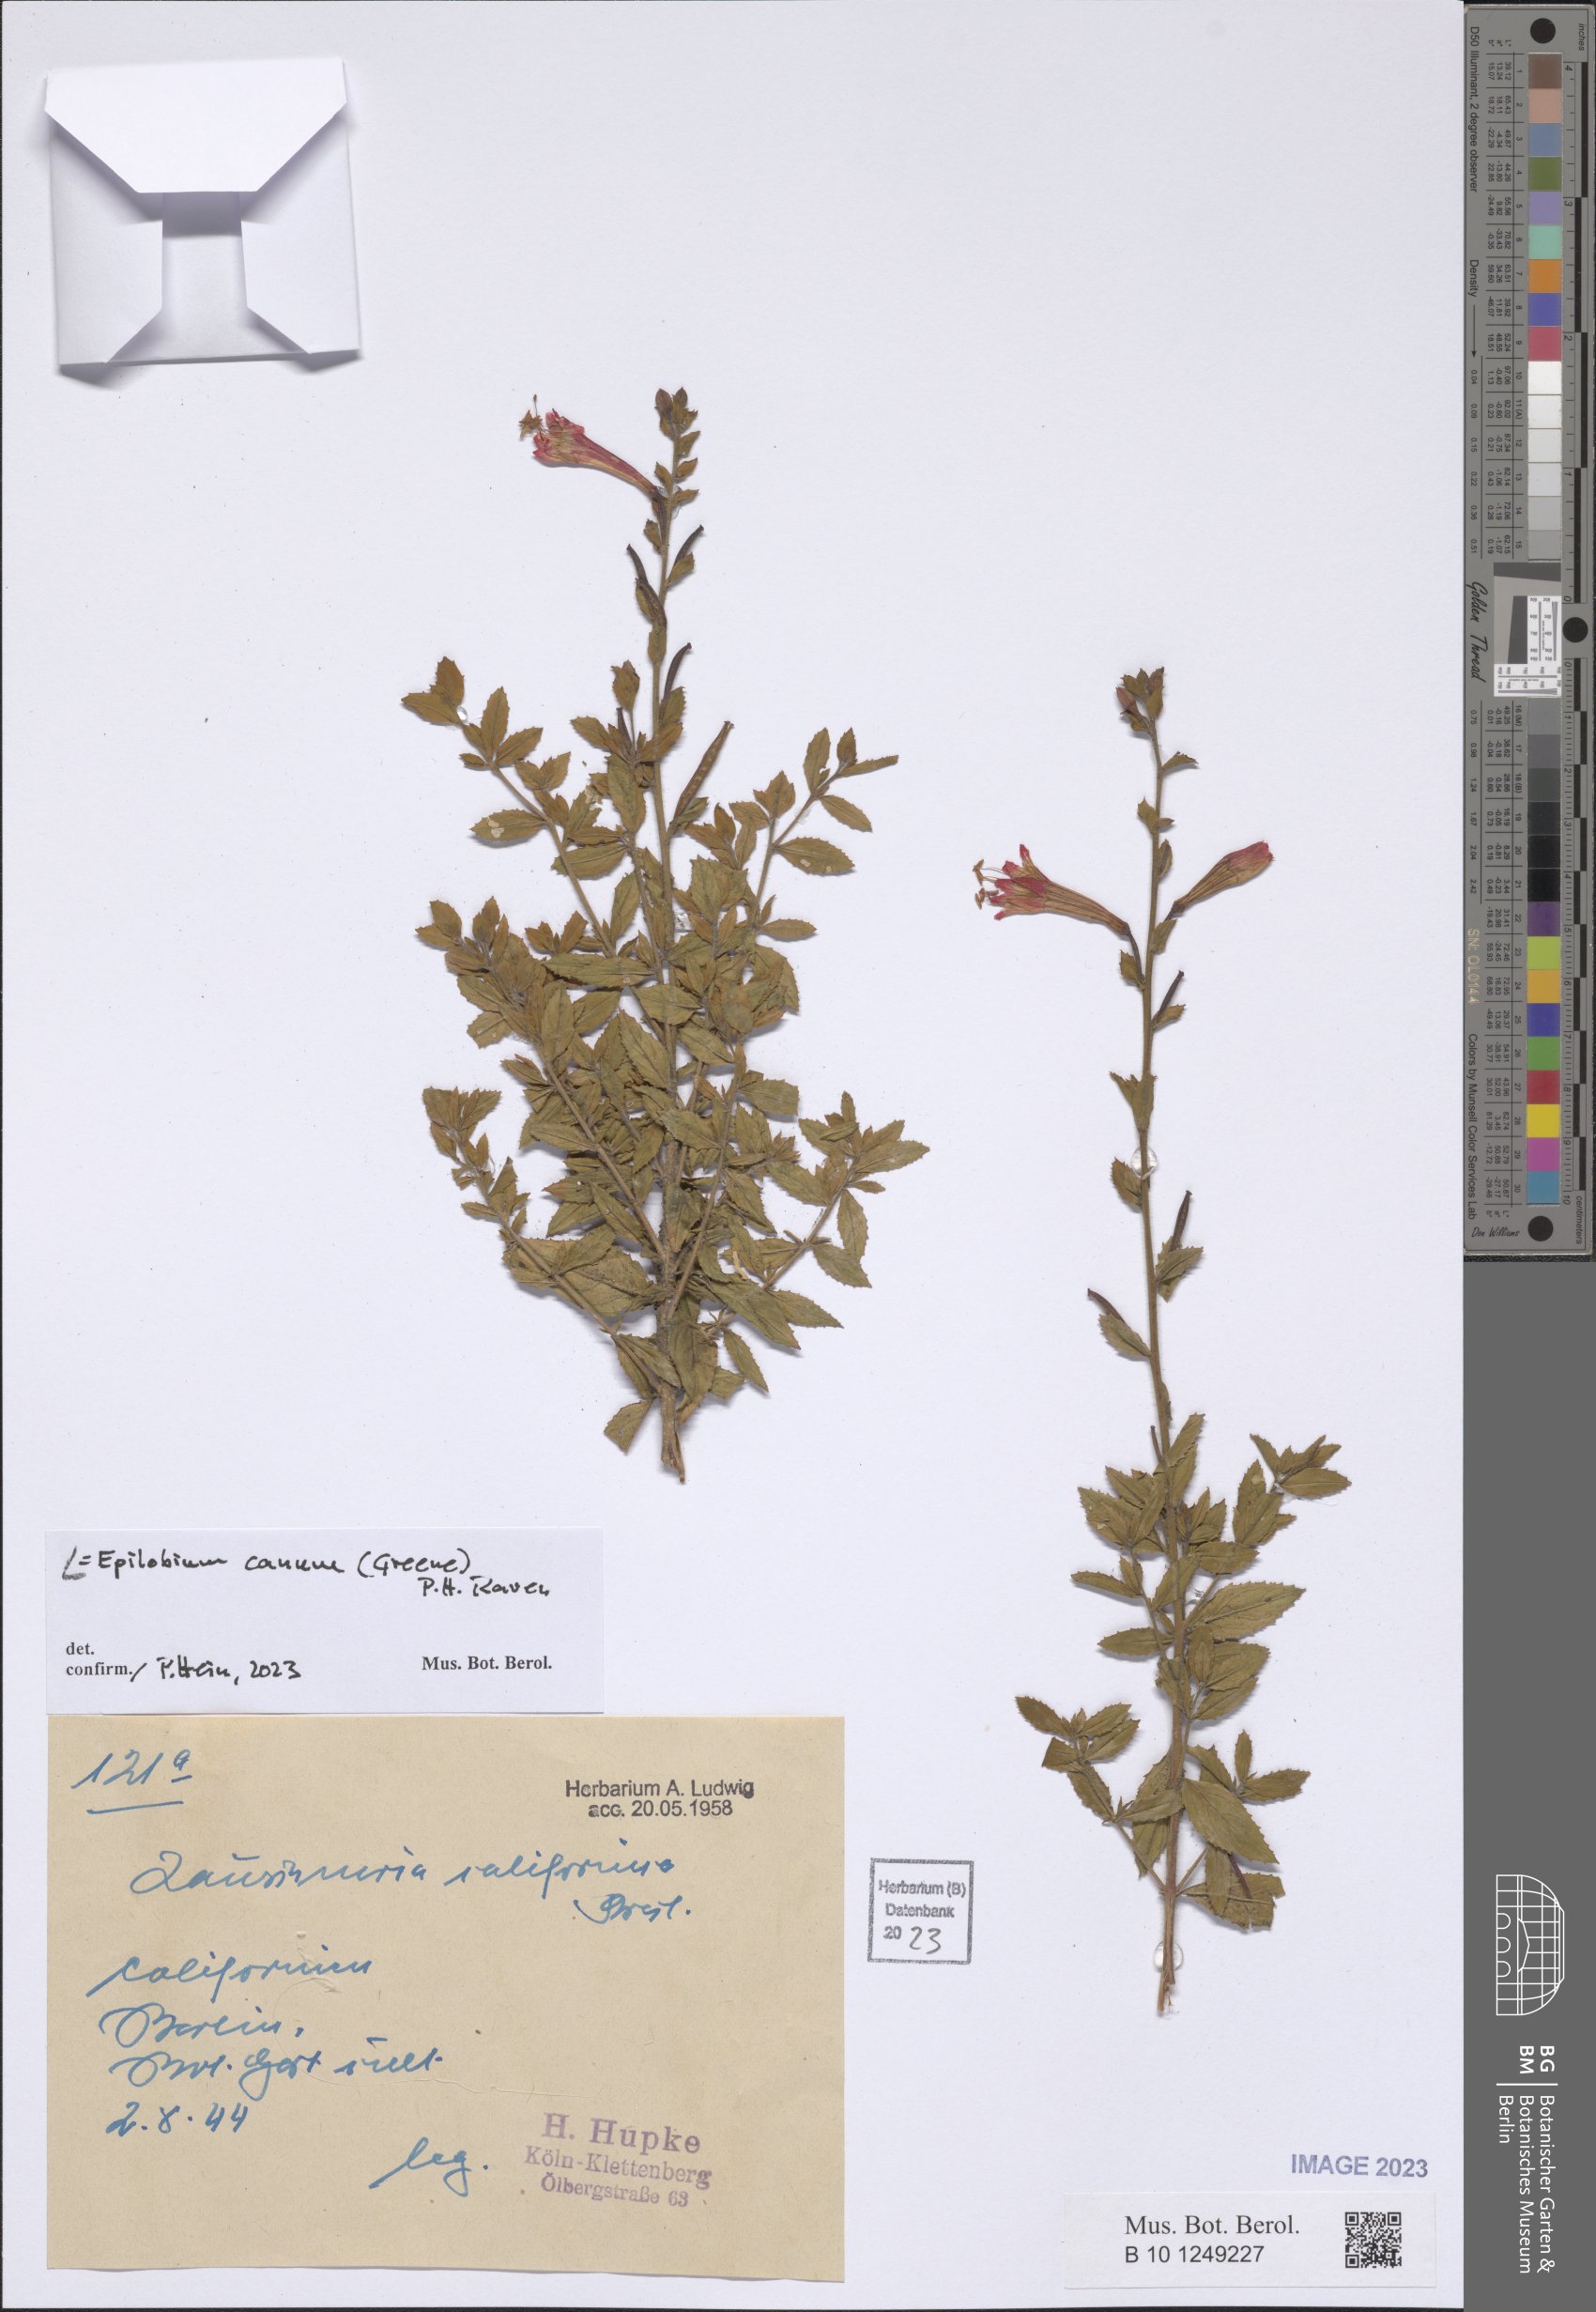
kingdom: Plantae
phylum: Tracheophyta
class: Magnoliopsida
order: Myrtales
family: Onagraceae
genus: Epilobium
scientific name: Epilobium canum
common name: California-fuchsia
